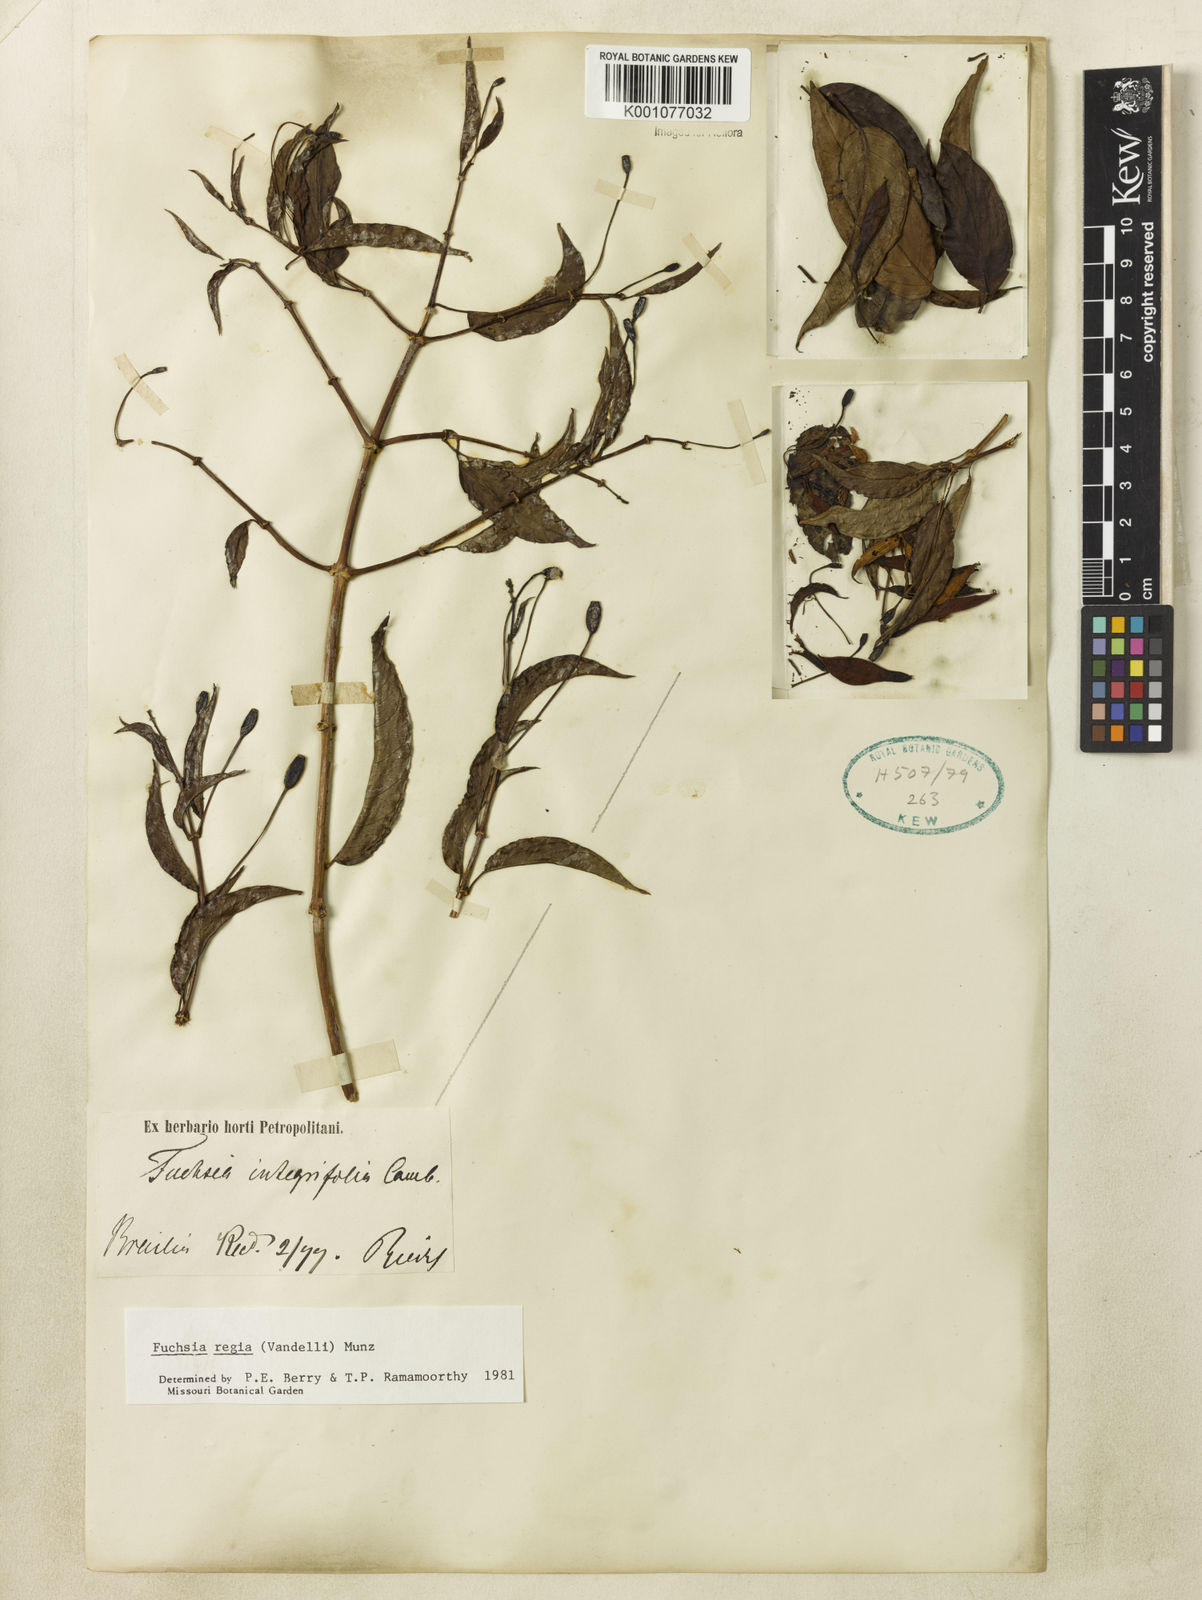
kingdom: Plantae
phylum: Tracheophyta
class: Magnoliopsida
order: Myrtales
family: Onagraceae
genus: Fuchsia
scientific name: Fuchsia regia
